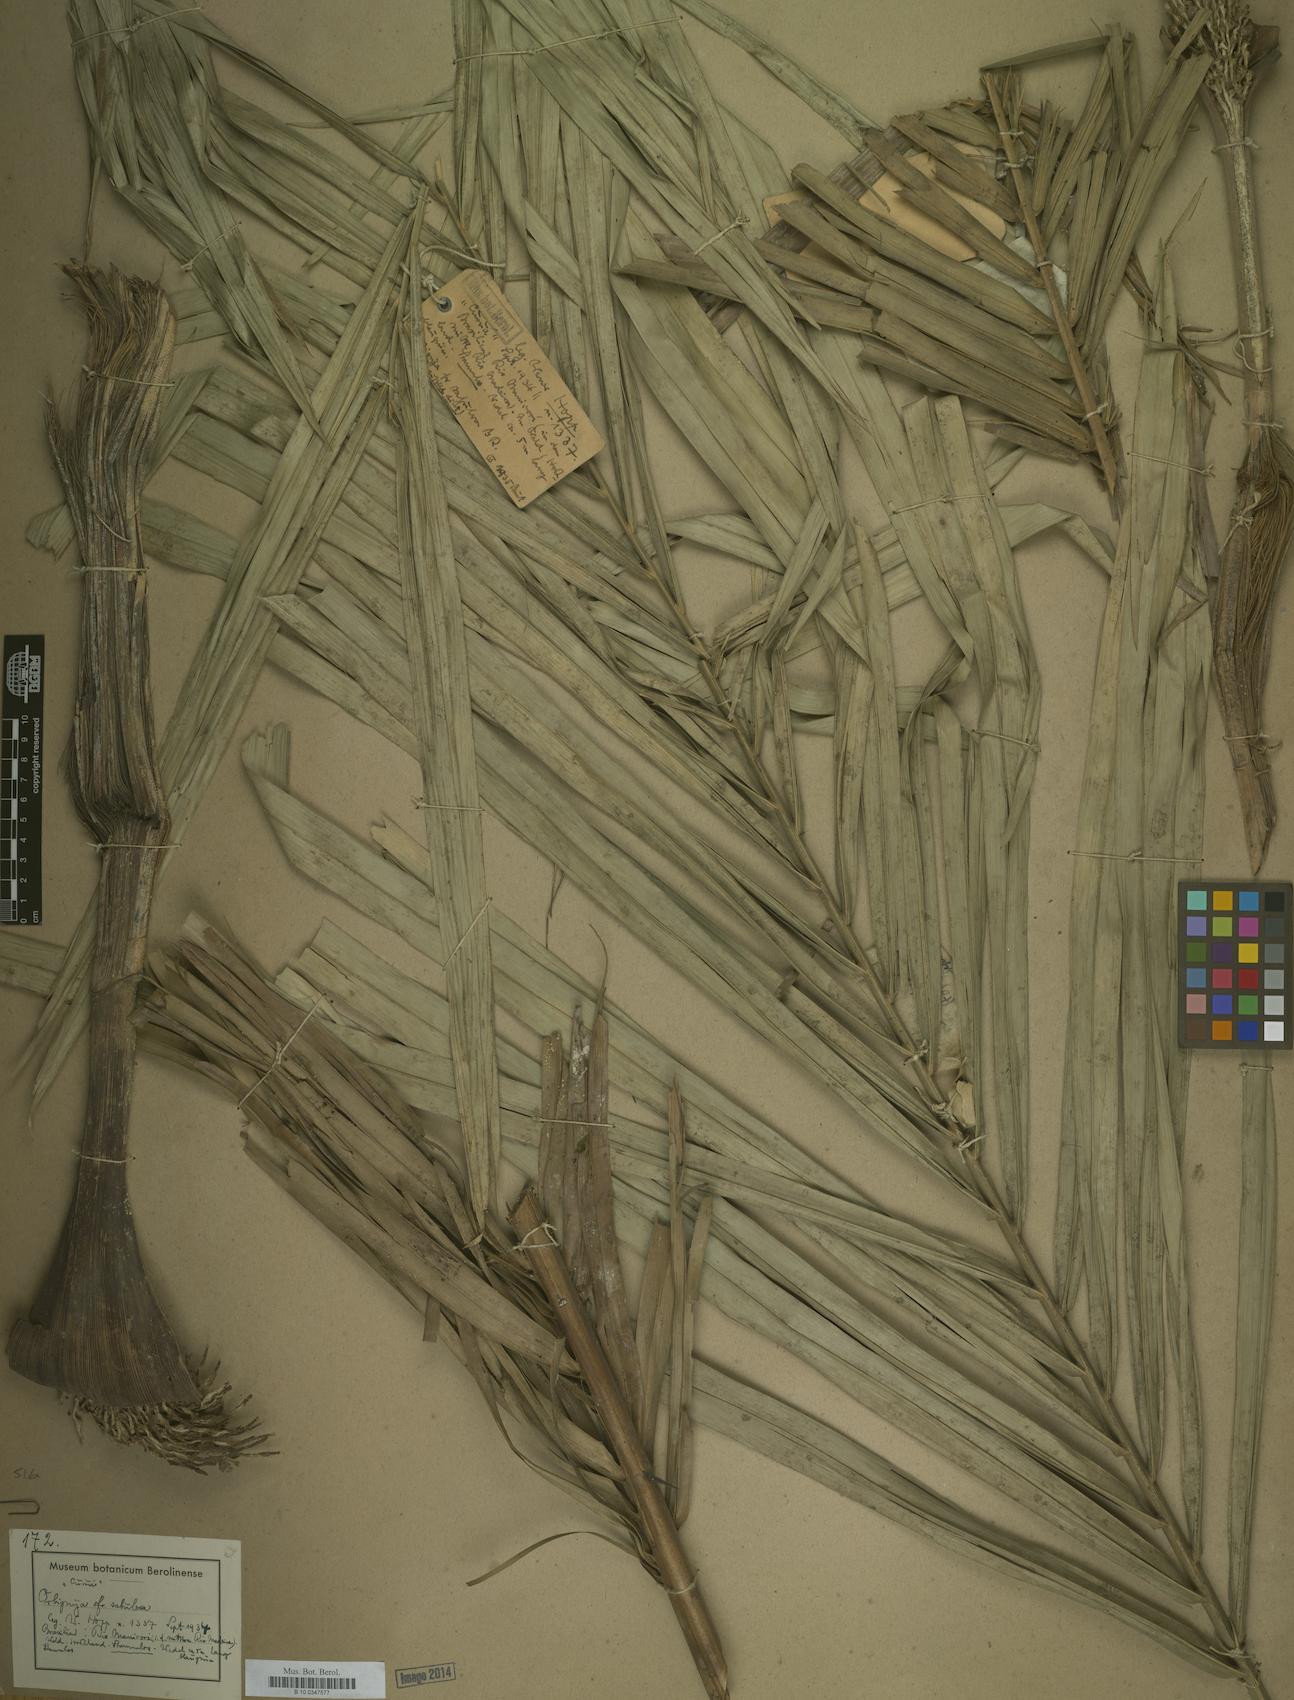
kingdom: Plantae
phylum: Tracheophyta
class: Liliopsida
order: Arecales
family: Arecaceae
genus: Attalea
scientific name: Attalea microcarpa
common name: Mountain maripa
